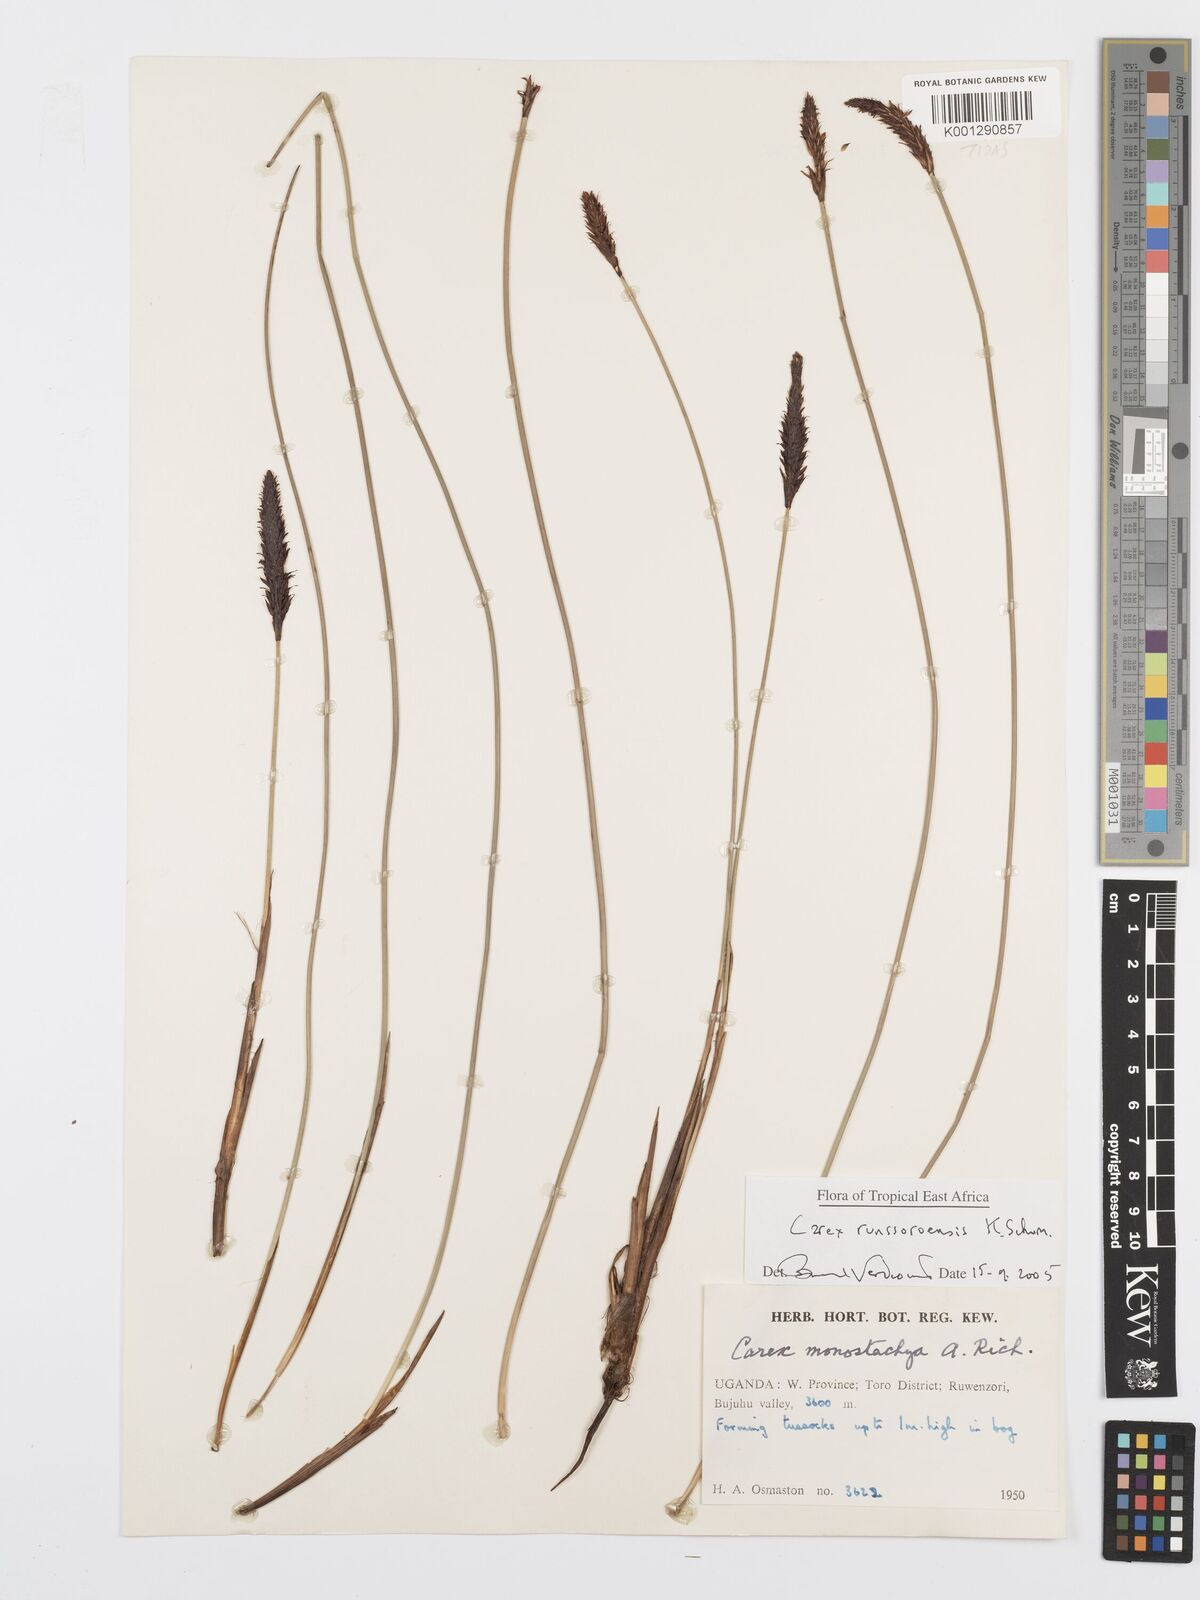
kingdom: Plantae
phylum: Tracheophyta
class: Liliopsida
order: Poales
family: Cyperaceae
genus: Carex
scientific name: Carex runssoroensis
